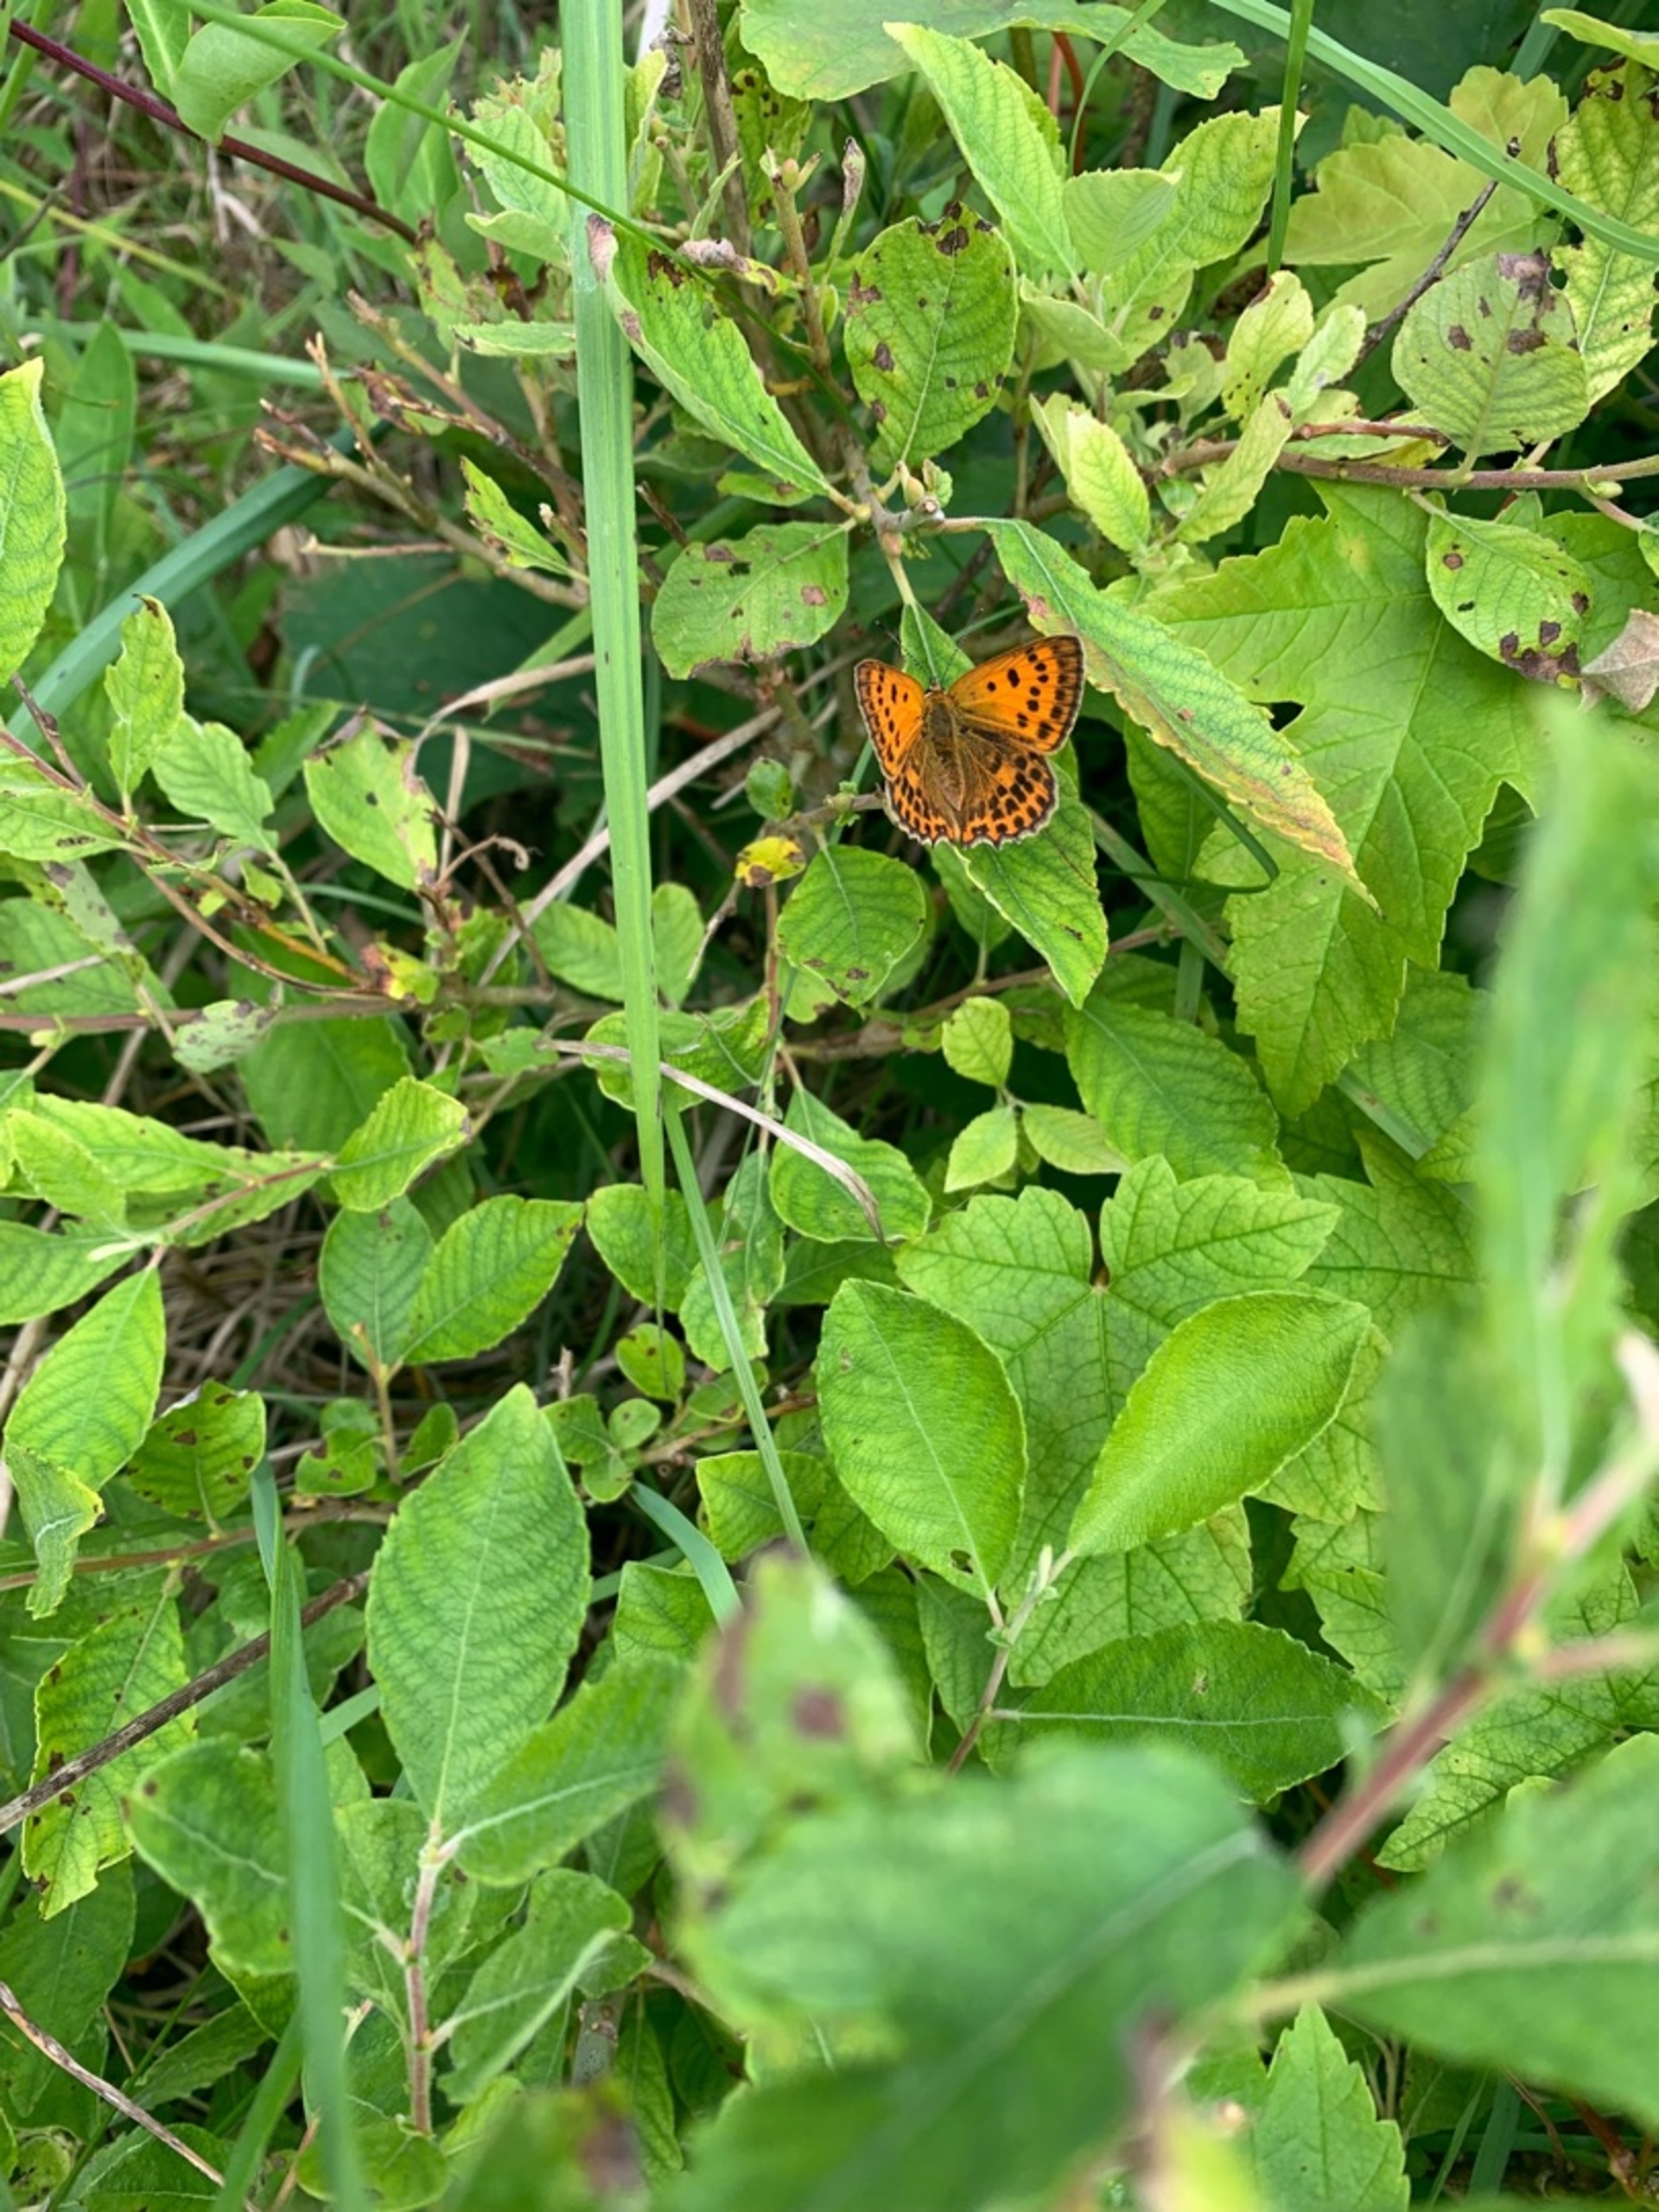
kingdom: Animalia
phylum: Arthropoda
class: Insecta
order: Lepidoptera
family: Lycaenidae
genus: Lycaena
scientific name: Lycaena virgaureae
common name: Dukatsommerfugl
